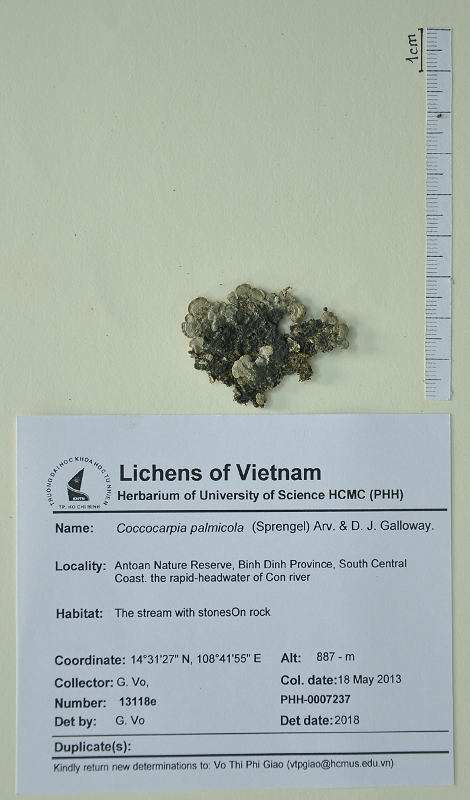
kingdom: Fungi
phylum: Ascomycota
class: Lecanoromycetes
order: Peltigerales
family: Coccocarpiaceae
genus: Coccocarpia
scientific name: Coccocarpia palmicola
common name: Salted shell lichen
